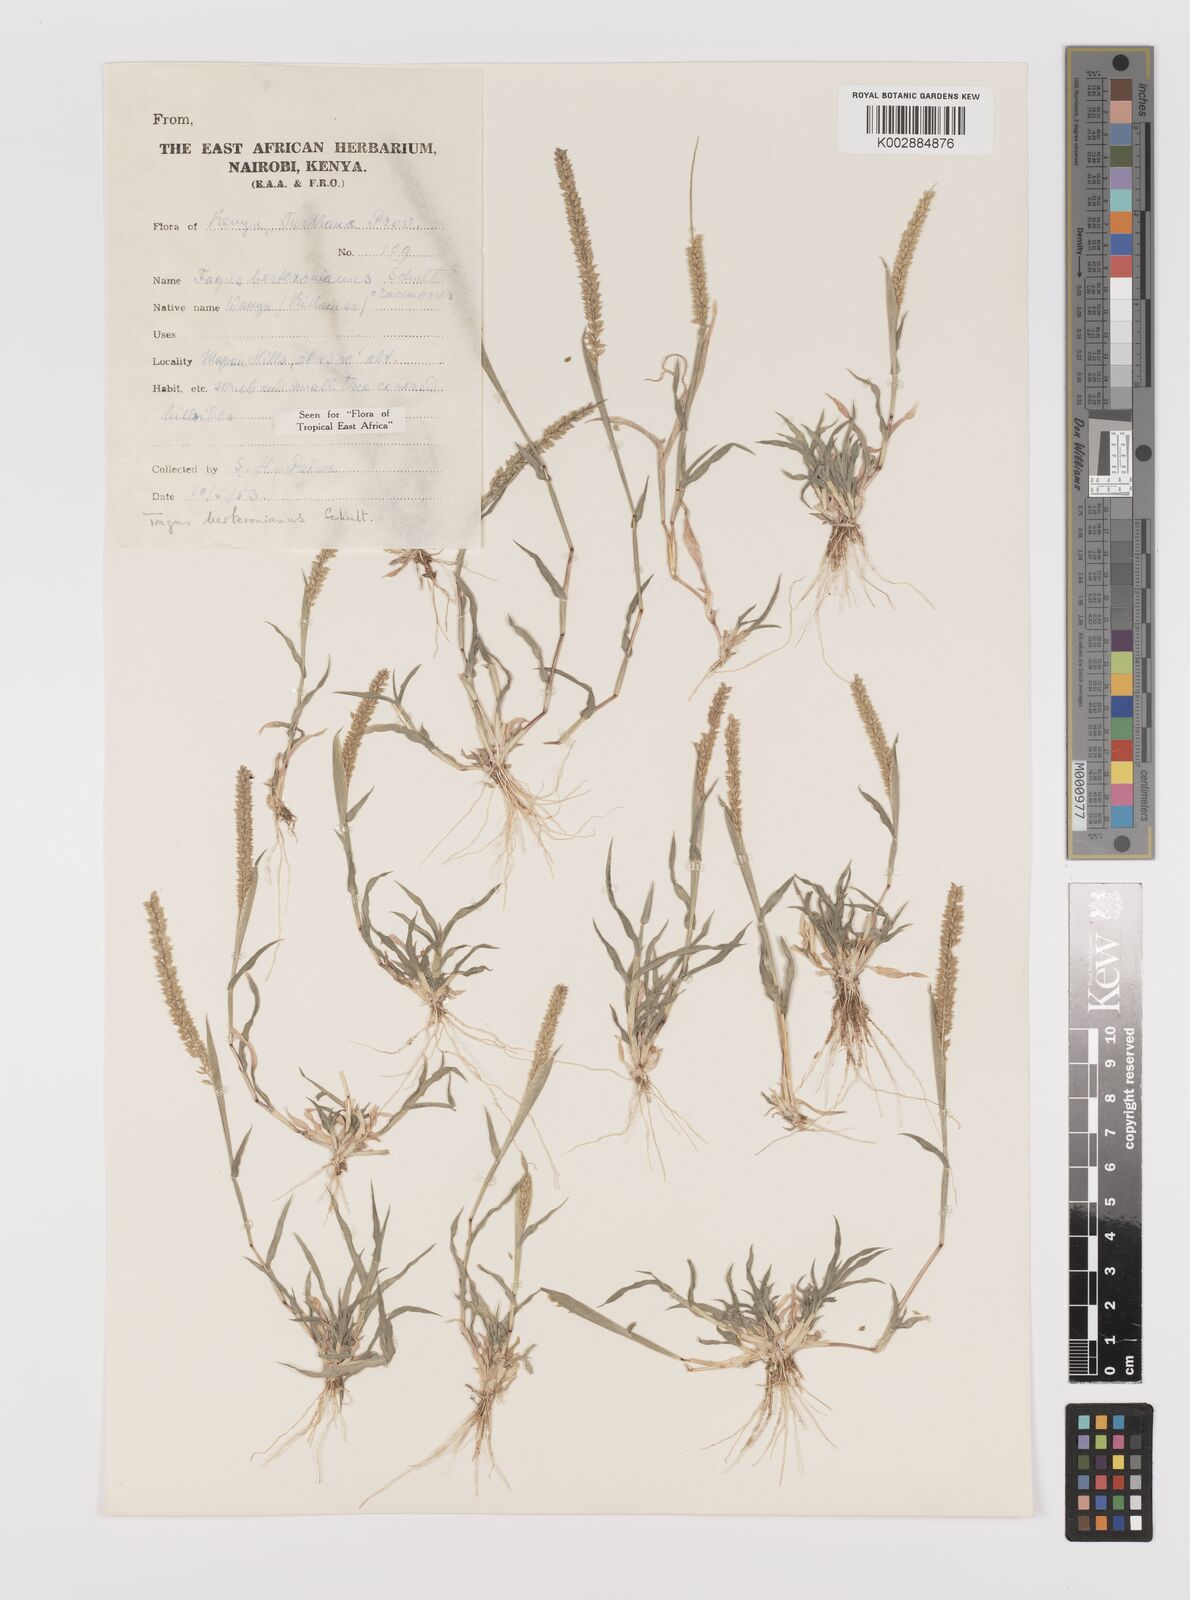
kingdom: Plantae
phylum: Tracheophyta
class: Liliopsida
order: Poales
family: Poaceae
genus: Tragus
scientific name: Tragus berteronianus
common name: African bur-grass
